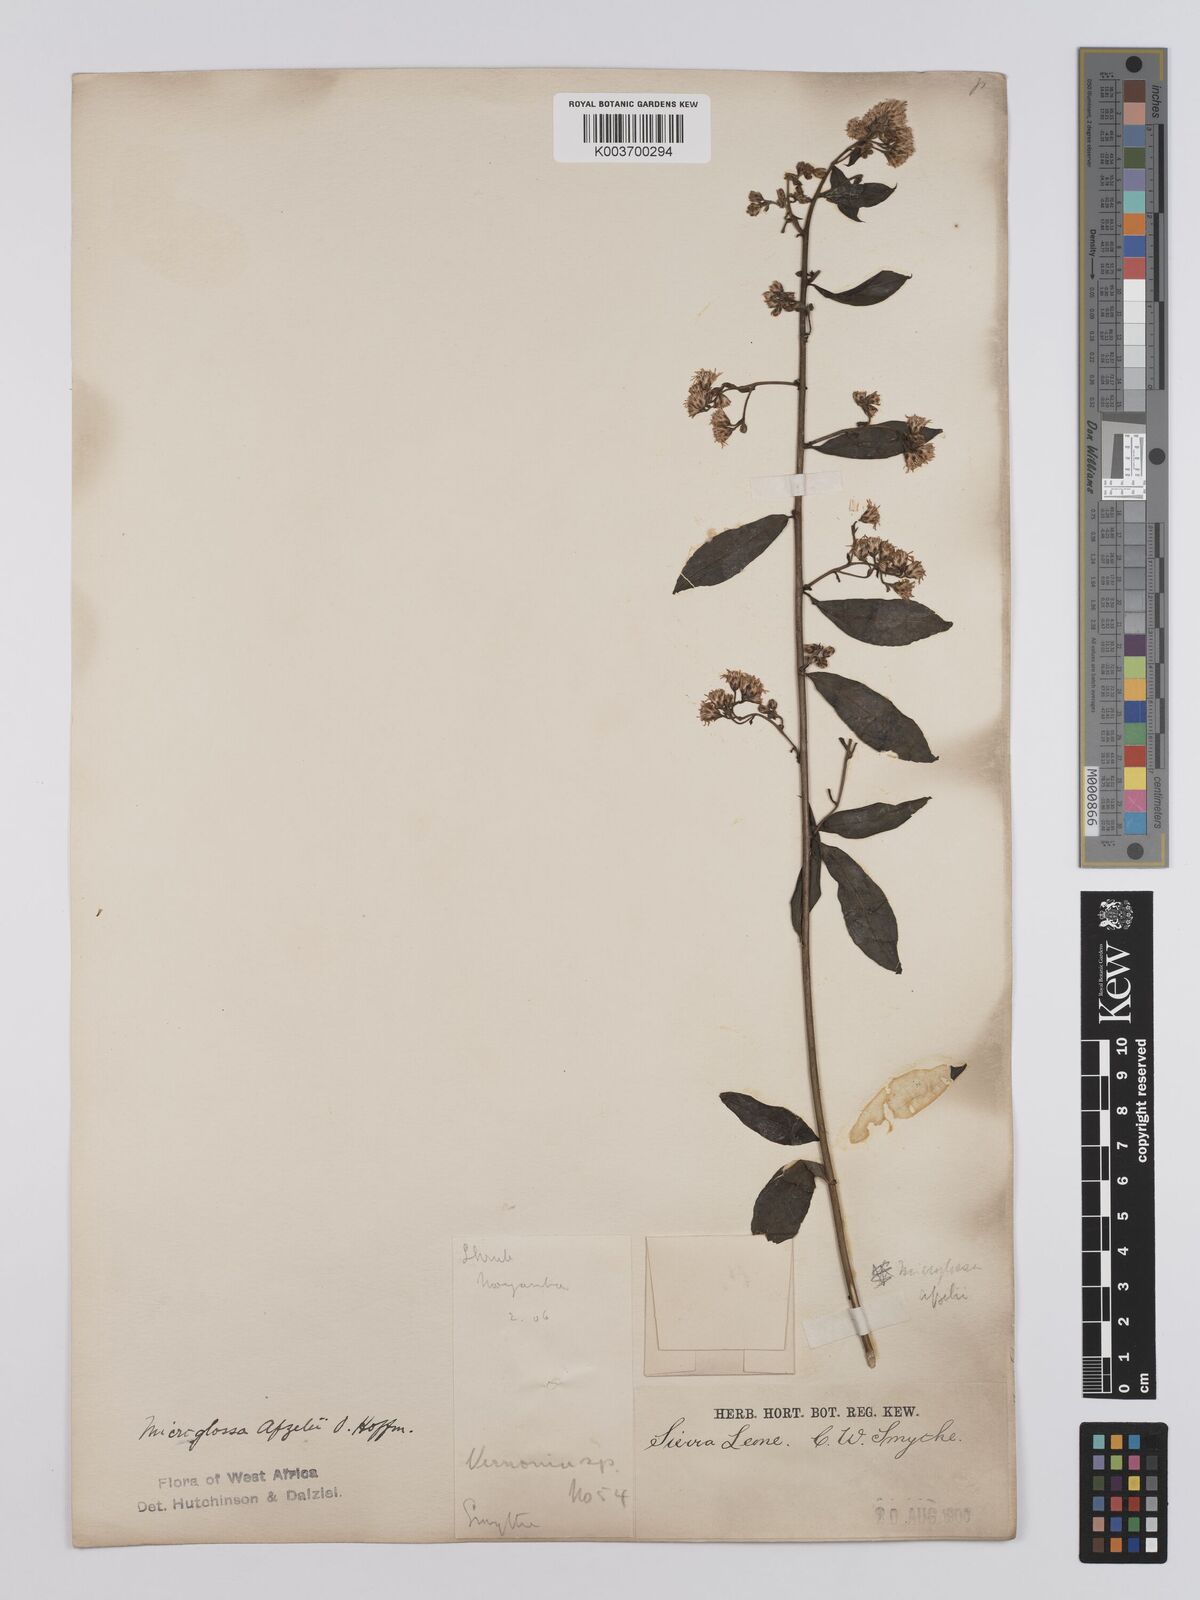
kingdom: Plantae
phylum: Tracheophyta
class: Magnoliopsida
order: Asterales
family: Asteraceae
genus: Microglossa
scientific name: Microglossa afzelii
